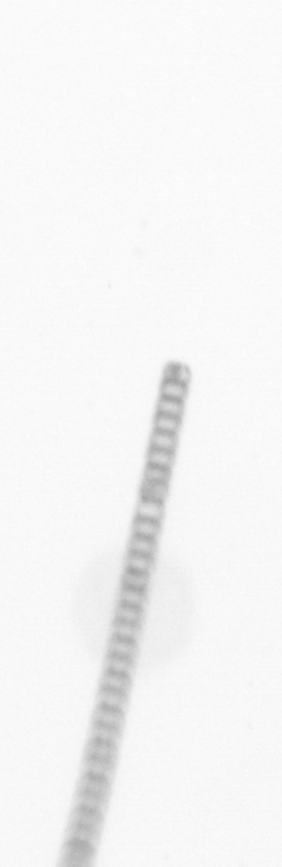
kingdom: Chromista
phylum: Ochrophyta
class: Bacillariophyceae
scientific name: Bacillariophyceae
